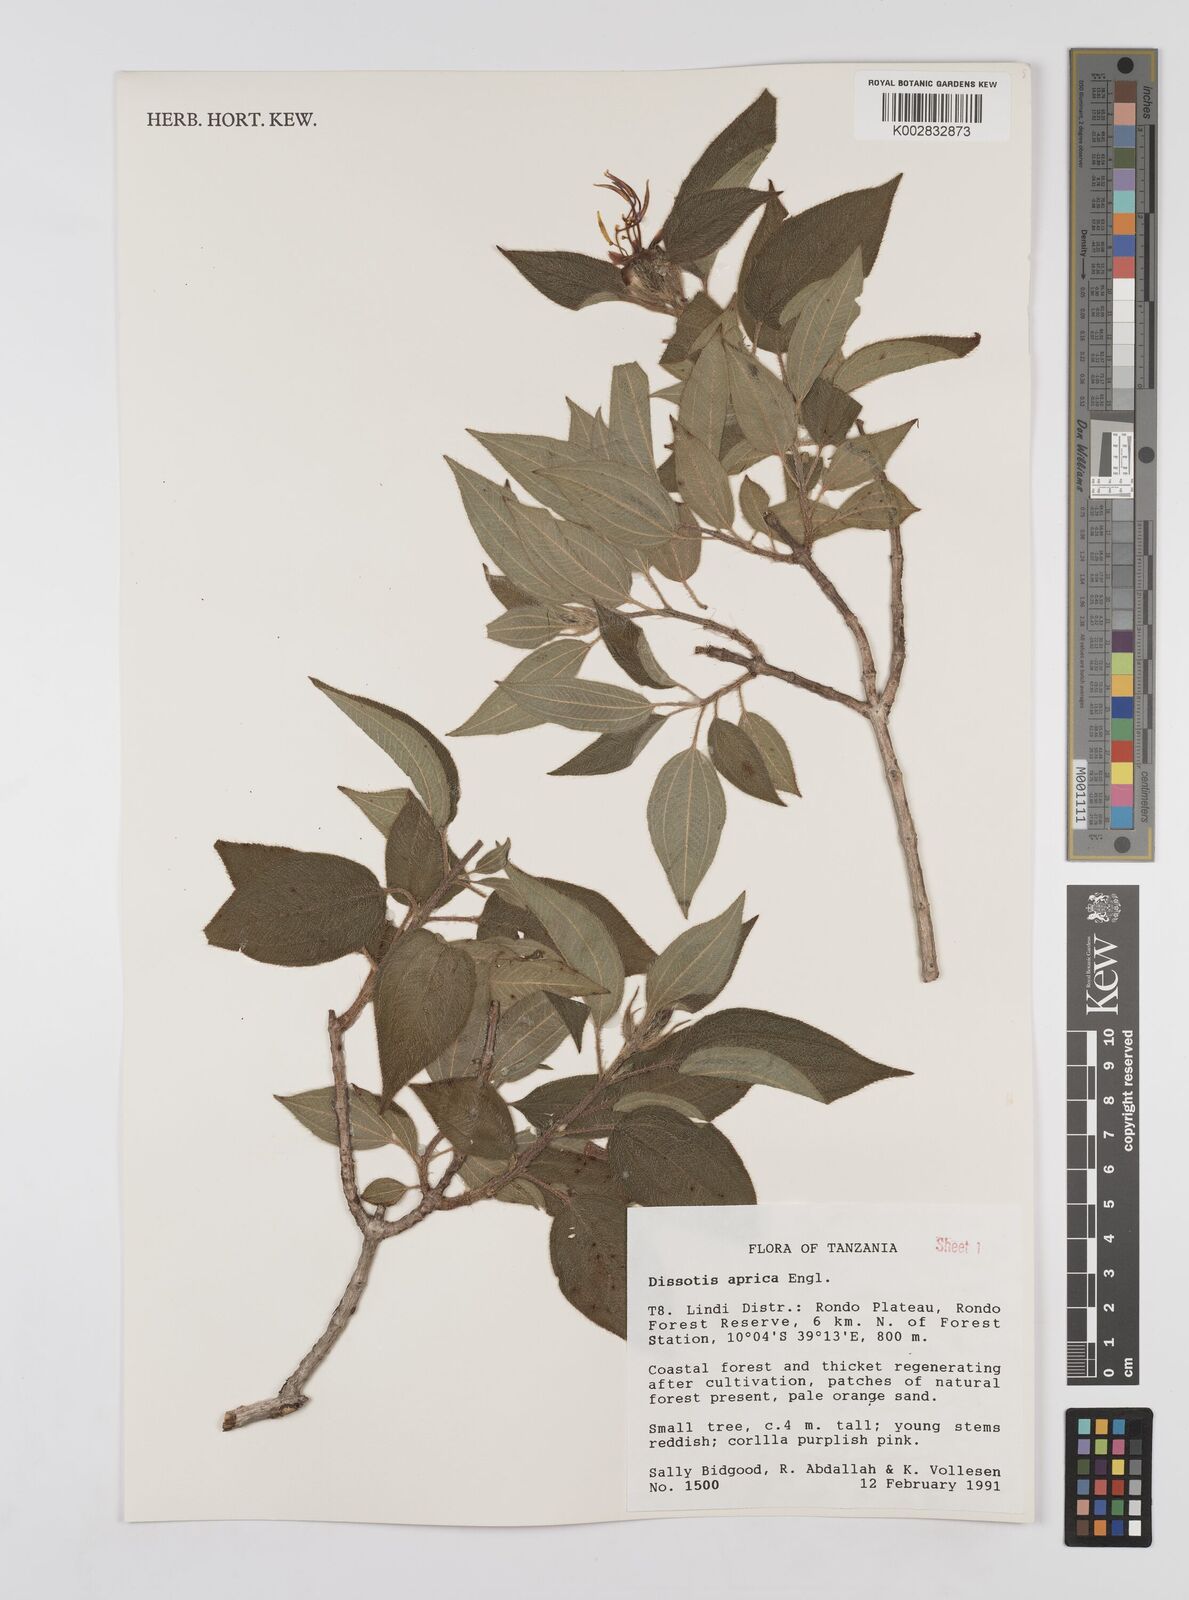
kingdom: Plantae
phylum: Tracheophyta
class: Magnoliopsida
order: Myrtales
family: Melastomataceae
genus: Dissotidendron
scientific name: Dissotidendron apricum
